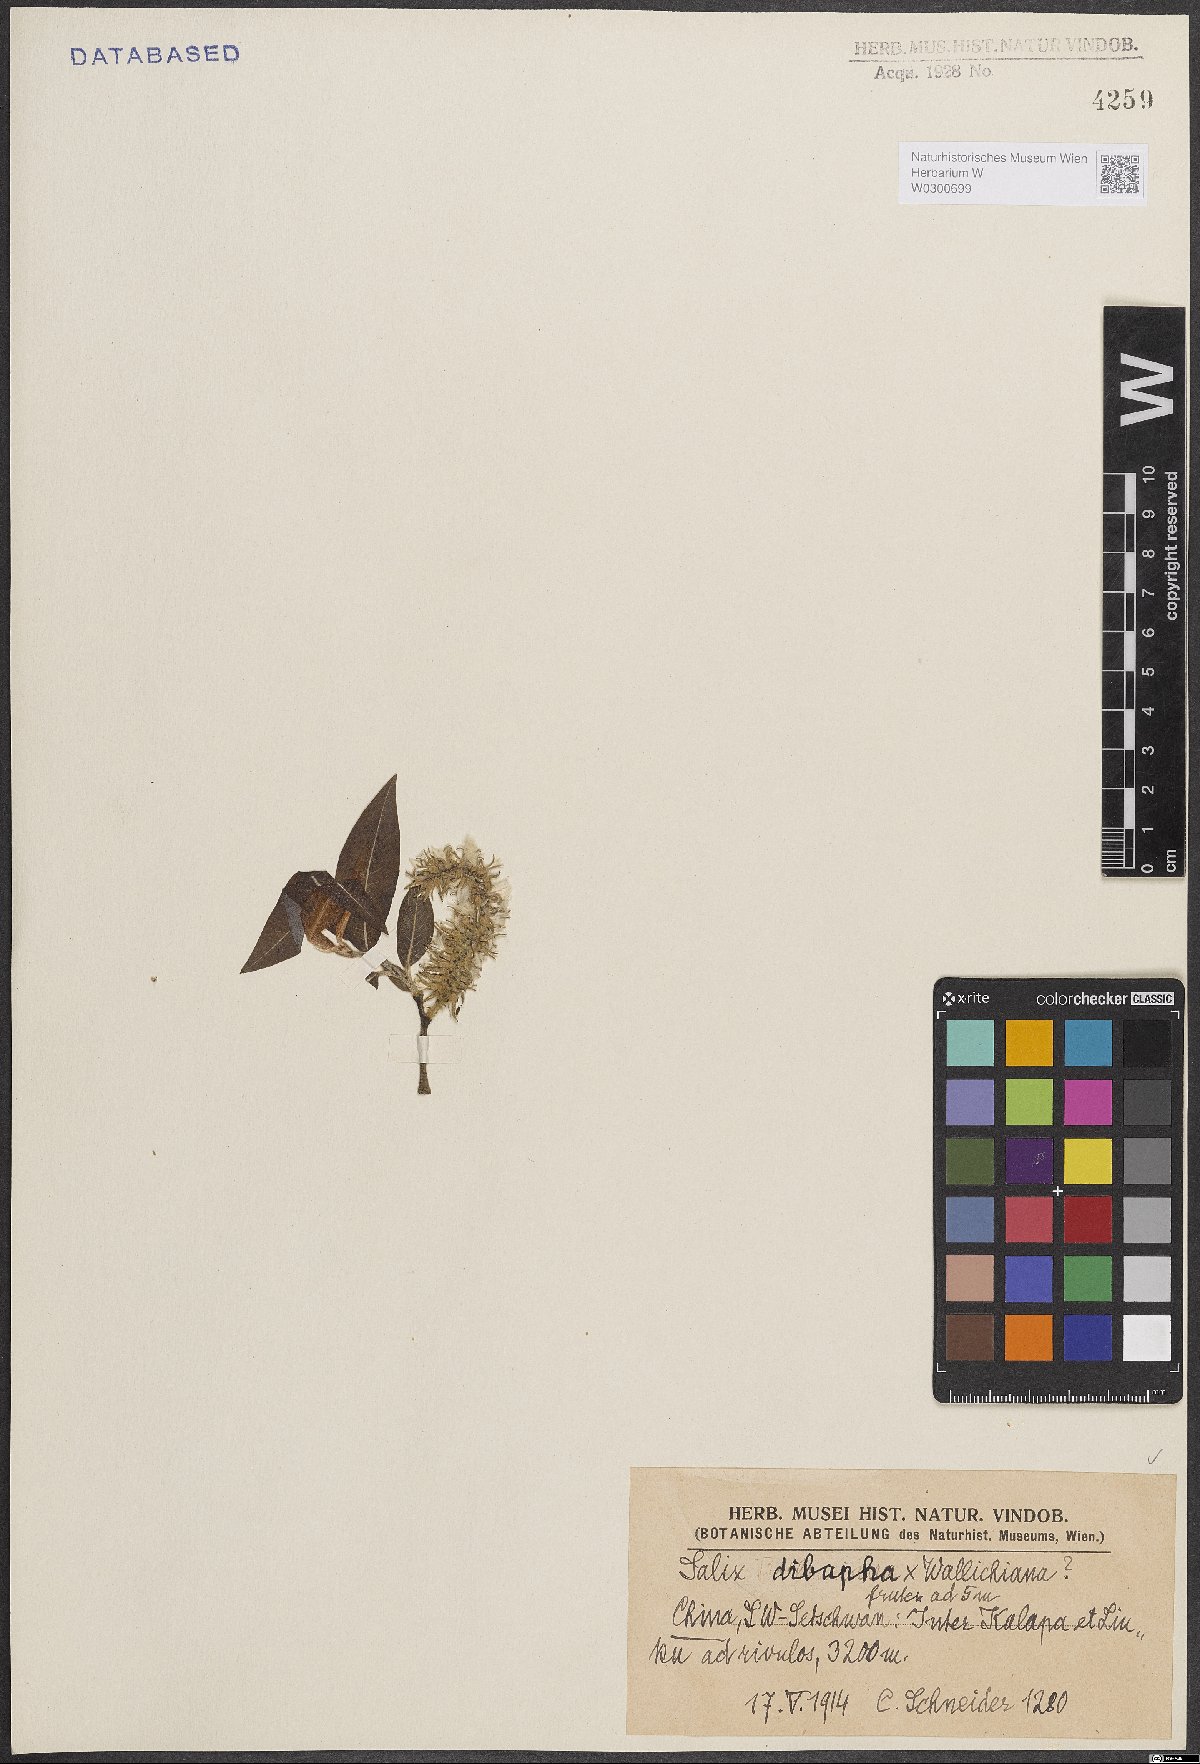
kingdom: Plantae
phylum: Tracheophyta
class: Magnoliopsida
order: Malpighiales
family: Salicaceae
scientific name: Salicaceae
